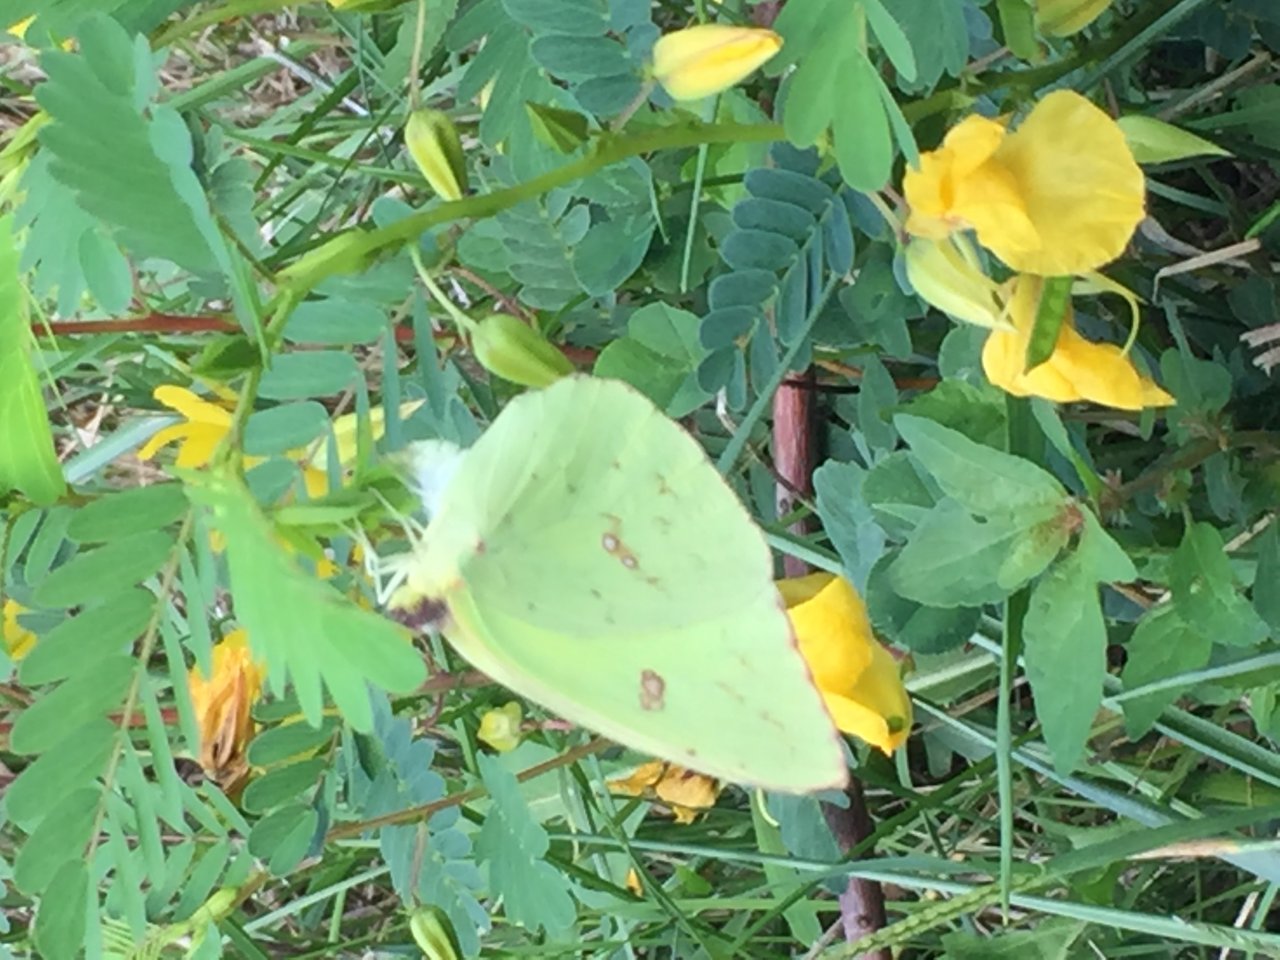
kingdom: Animalia
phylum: Arthropoda
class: Insecta
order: Lepidoptera
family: Pieridae
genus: Phoebis
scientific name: Phoebis sennae
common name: Cloudless Sulphur
